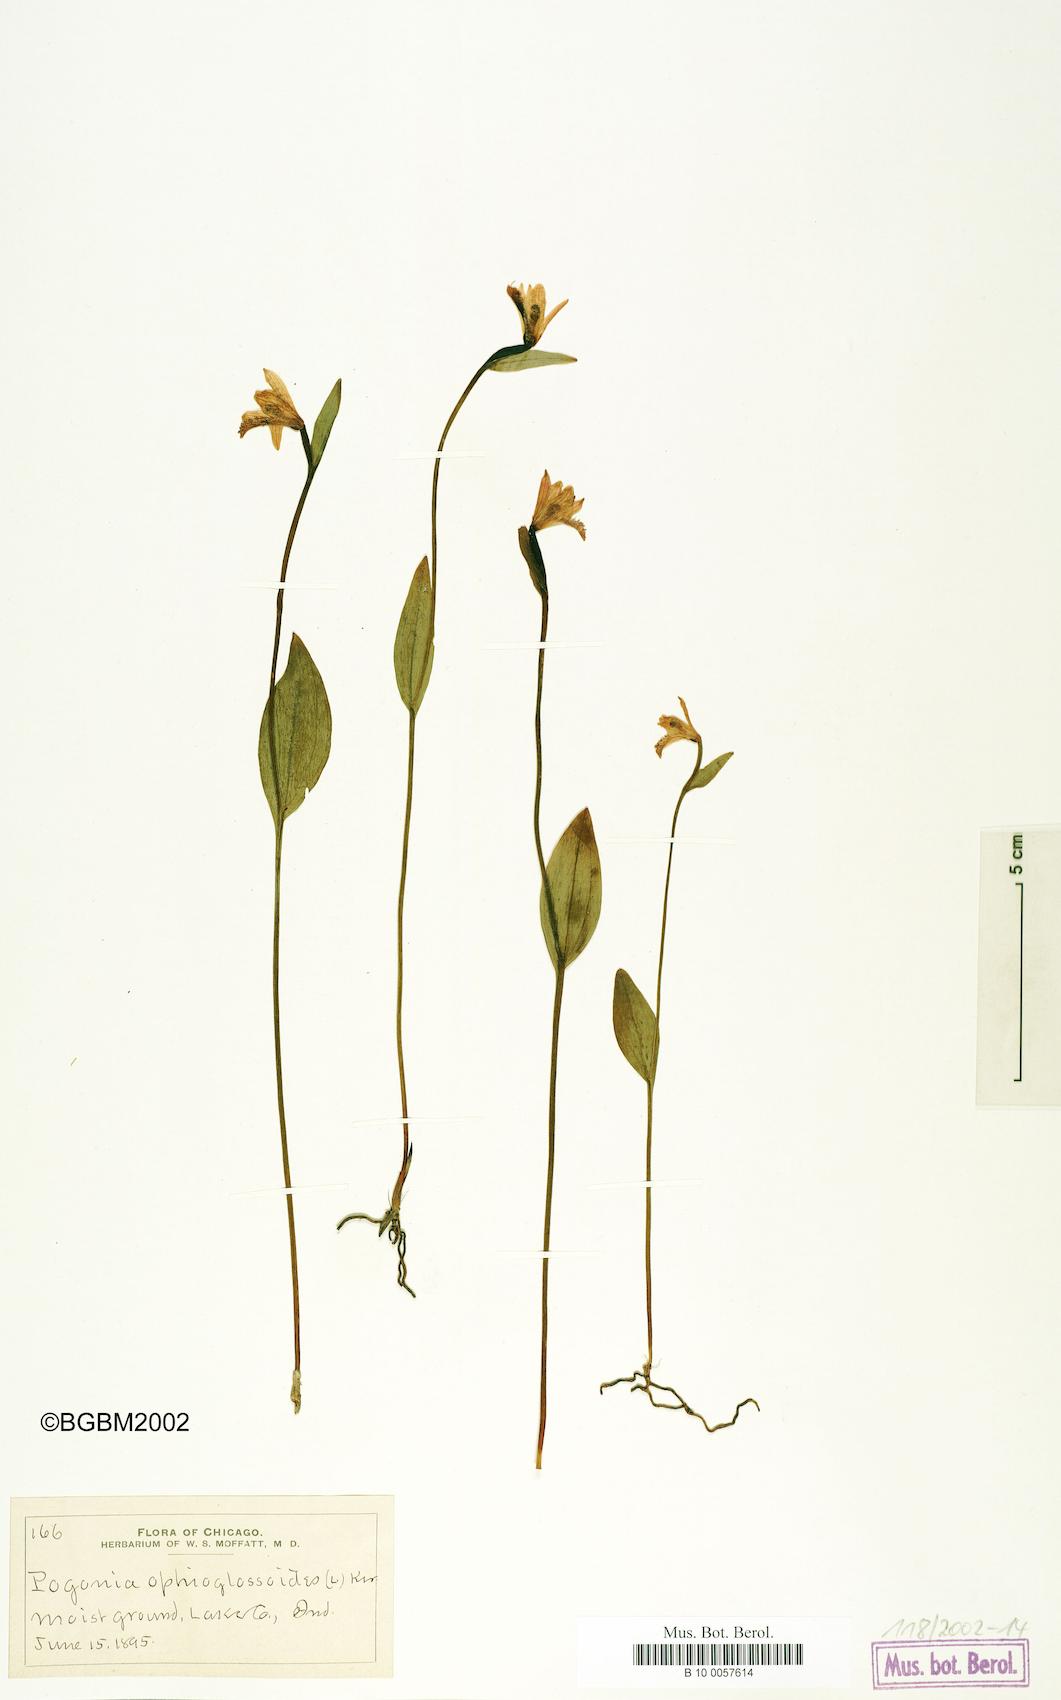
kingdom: Plantae
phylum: Tracheophyta
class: Liliopsida
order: Asparagales
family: Orchidaceae
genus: Pogonia
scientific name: Pogonia ophioglossoides
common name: Rose pogonia
